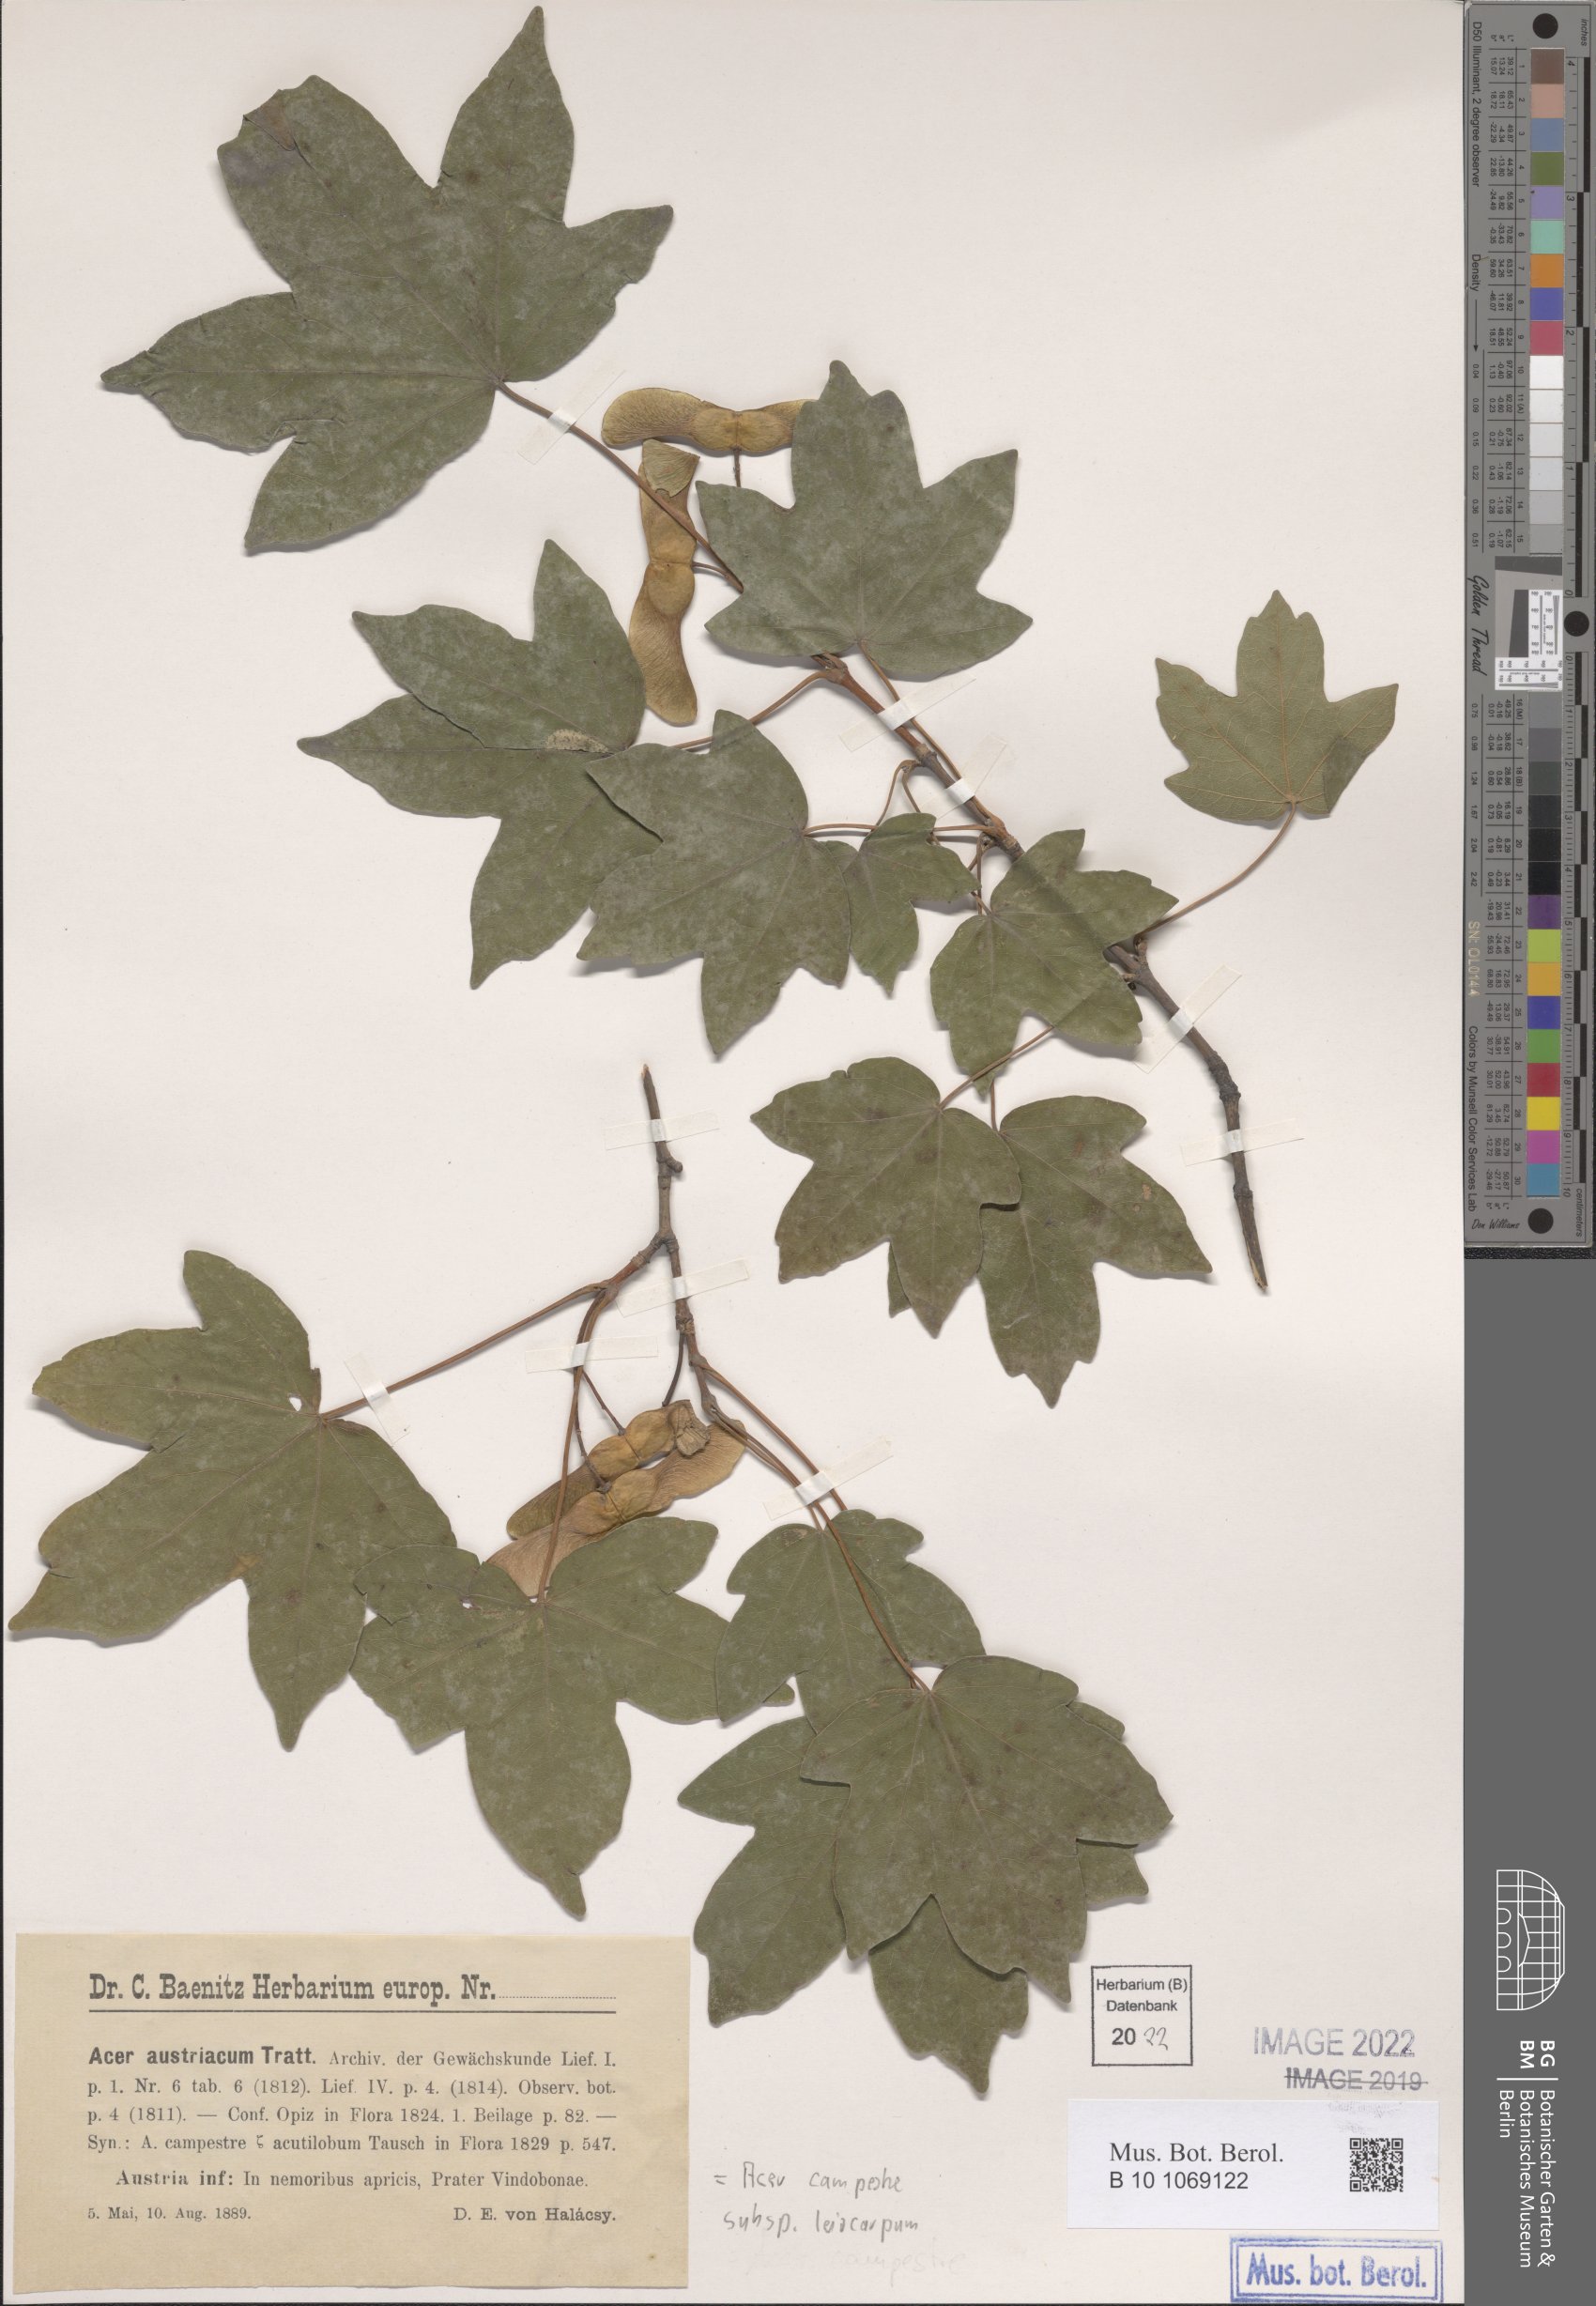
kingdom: Plantae
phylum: Tracheophyta
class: Magnoliopsida
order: Sapindales
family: Sapindaceae
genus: Acer
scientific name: Acer campestre
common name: Field maple
